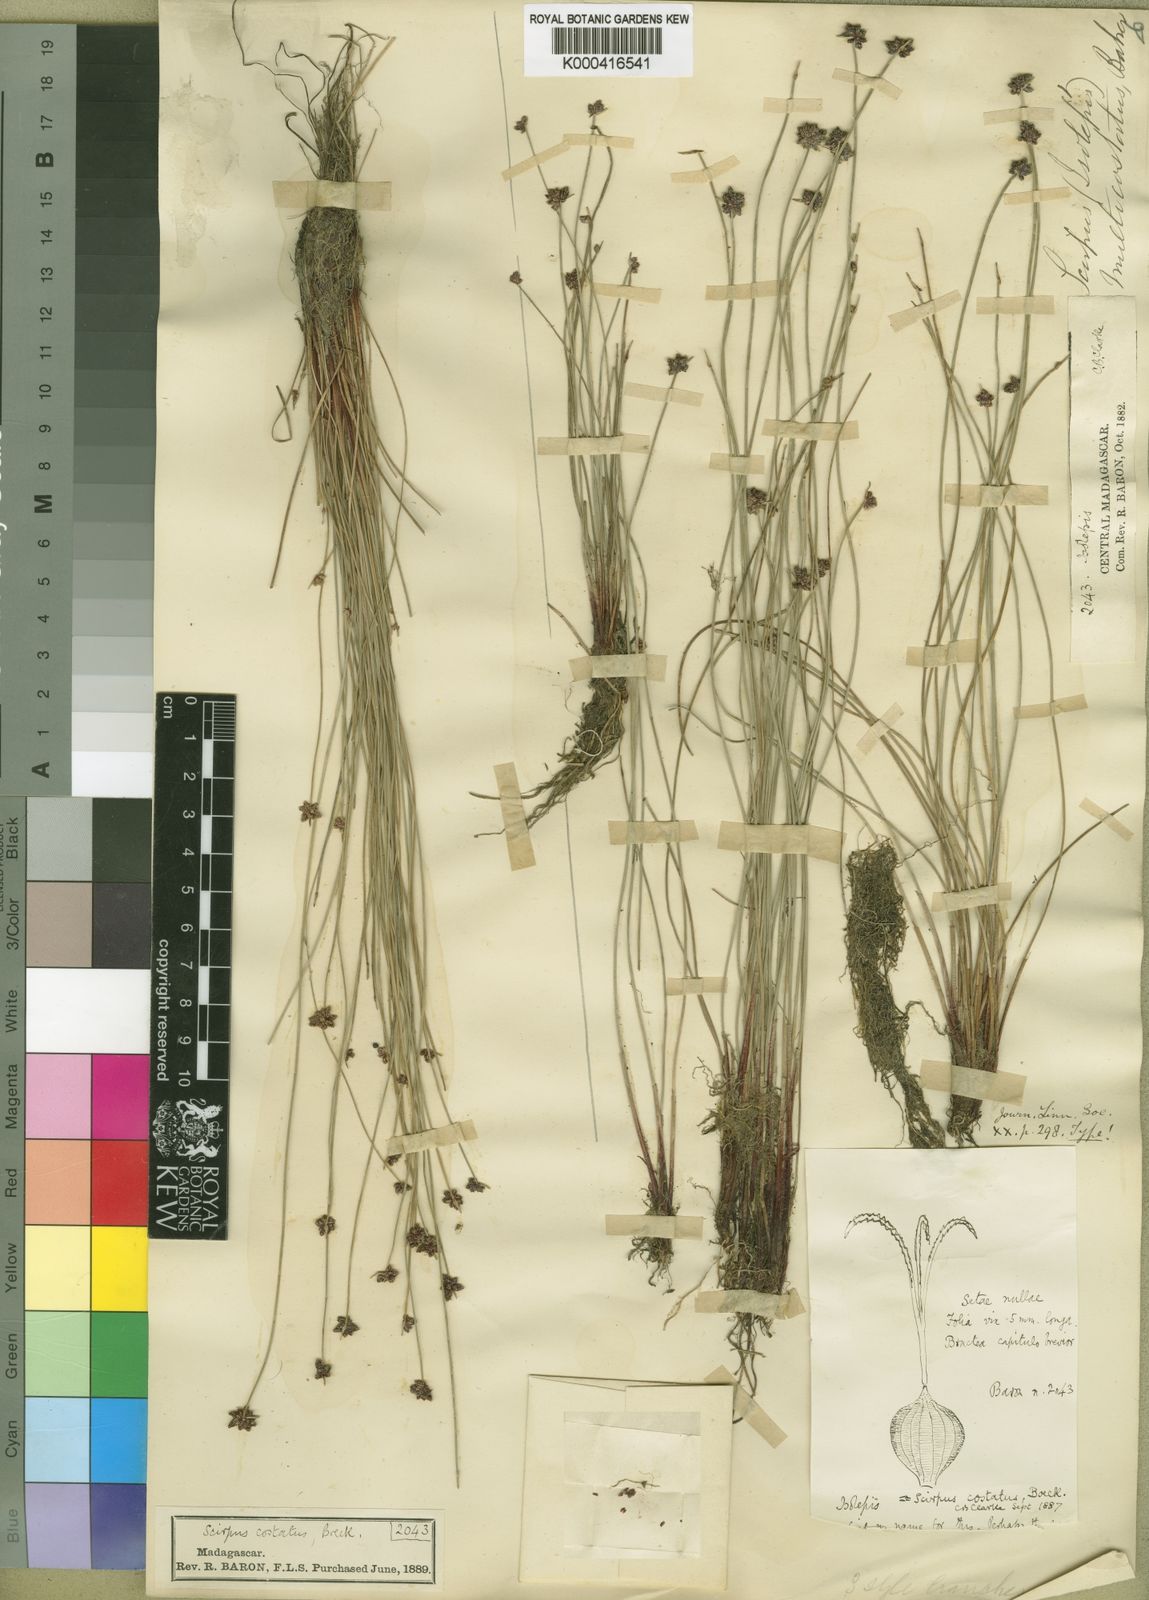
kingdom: Plantae
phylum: Tracheophyta
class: Liliopsida
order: Poales
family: Cyperaceae
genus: Isolepis
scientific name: Isolepis costata
